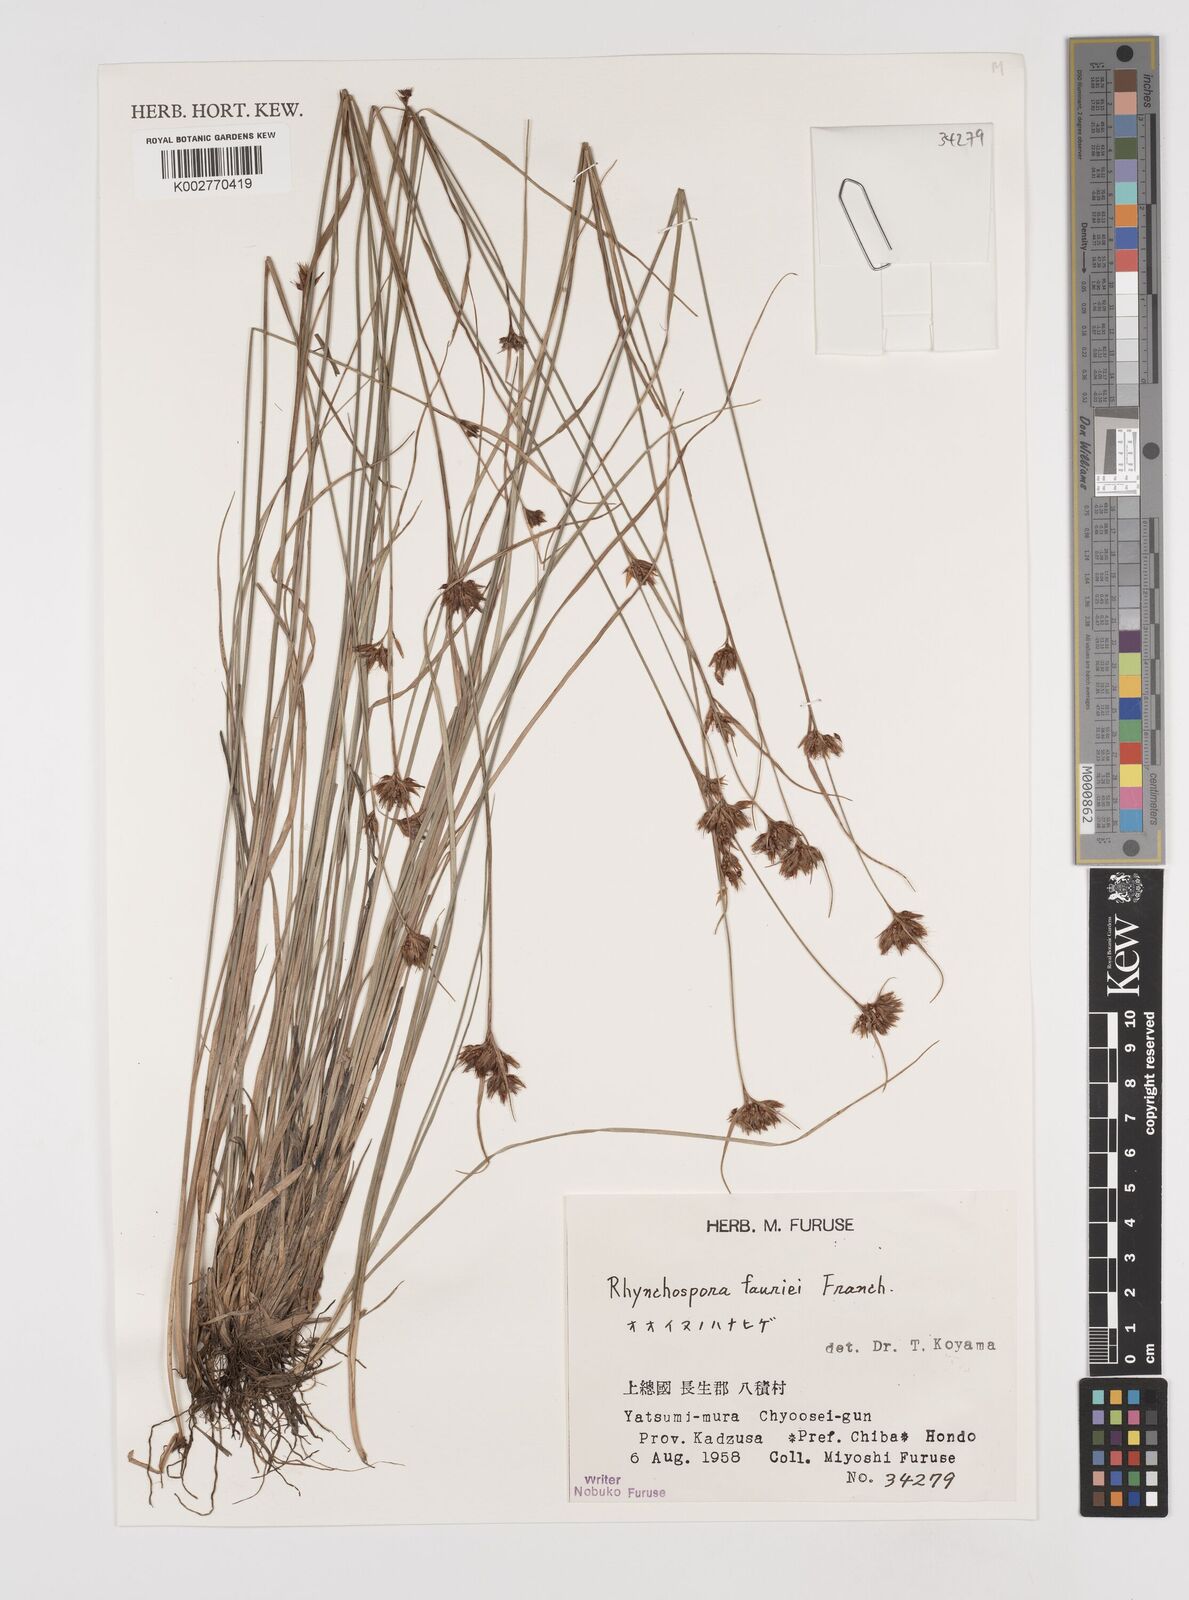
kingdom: Plantae
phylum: Tracheophyta
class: Liliopsida
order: Poales
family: Cyperaceae
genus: Rhynchospora
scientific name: Rhynchospora fauriei
